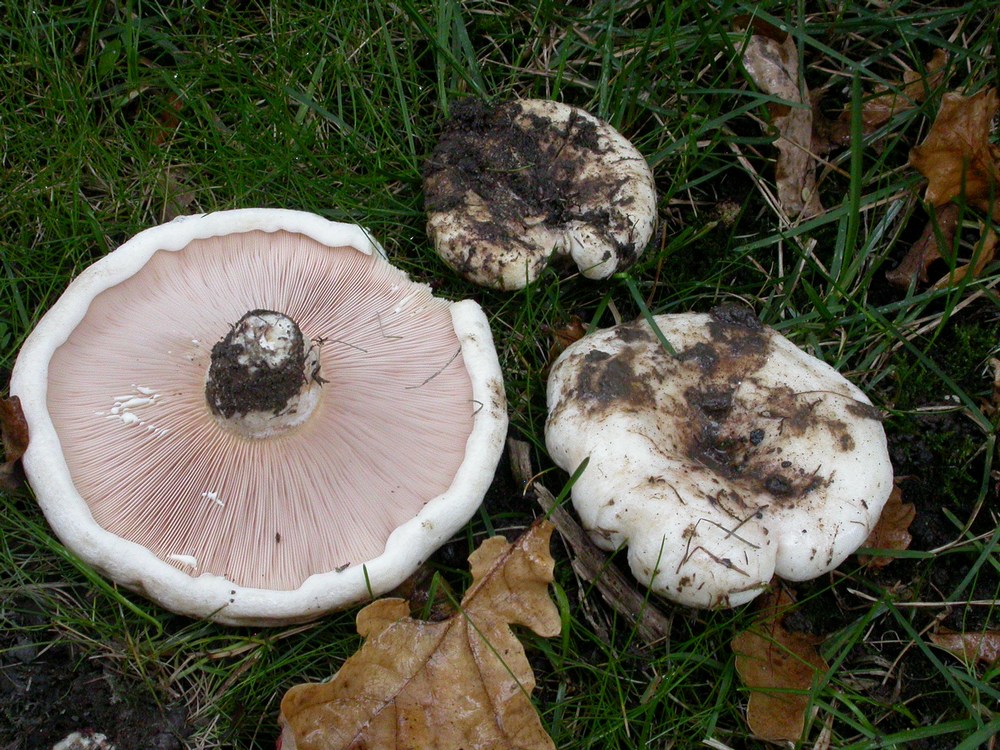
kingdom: Fungi
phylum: Basidiomycota
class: Agaricomycetes
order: Russulales
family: Russulaceae
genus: Lactarius
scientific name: Lactarius controversus
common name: rosabladet mælkehat
